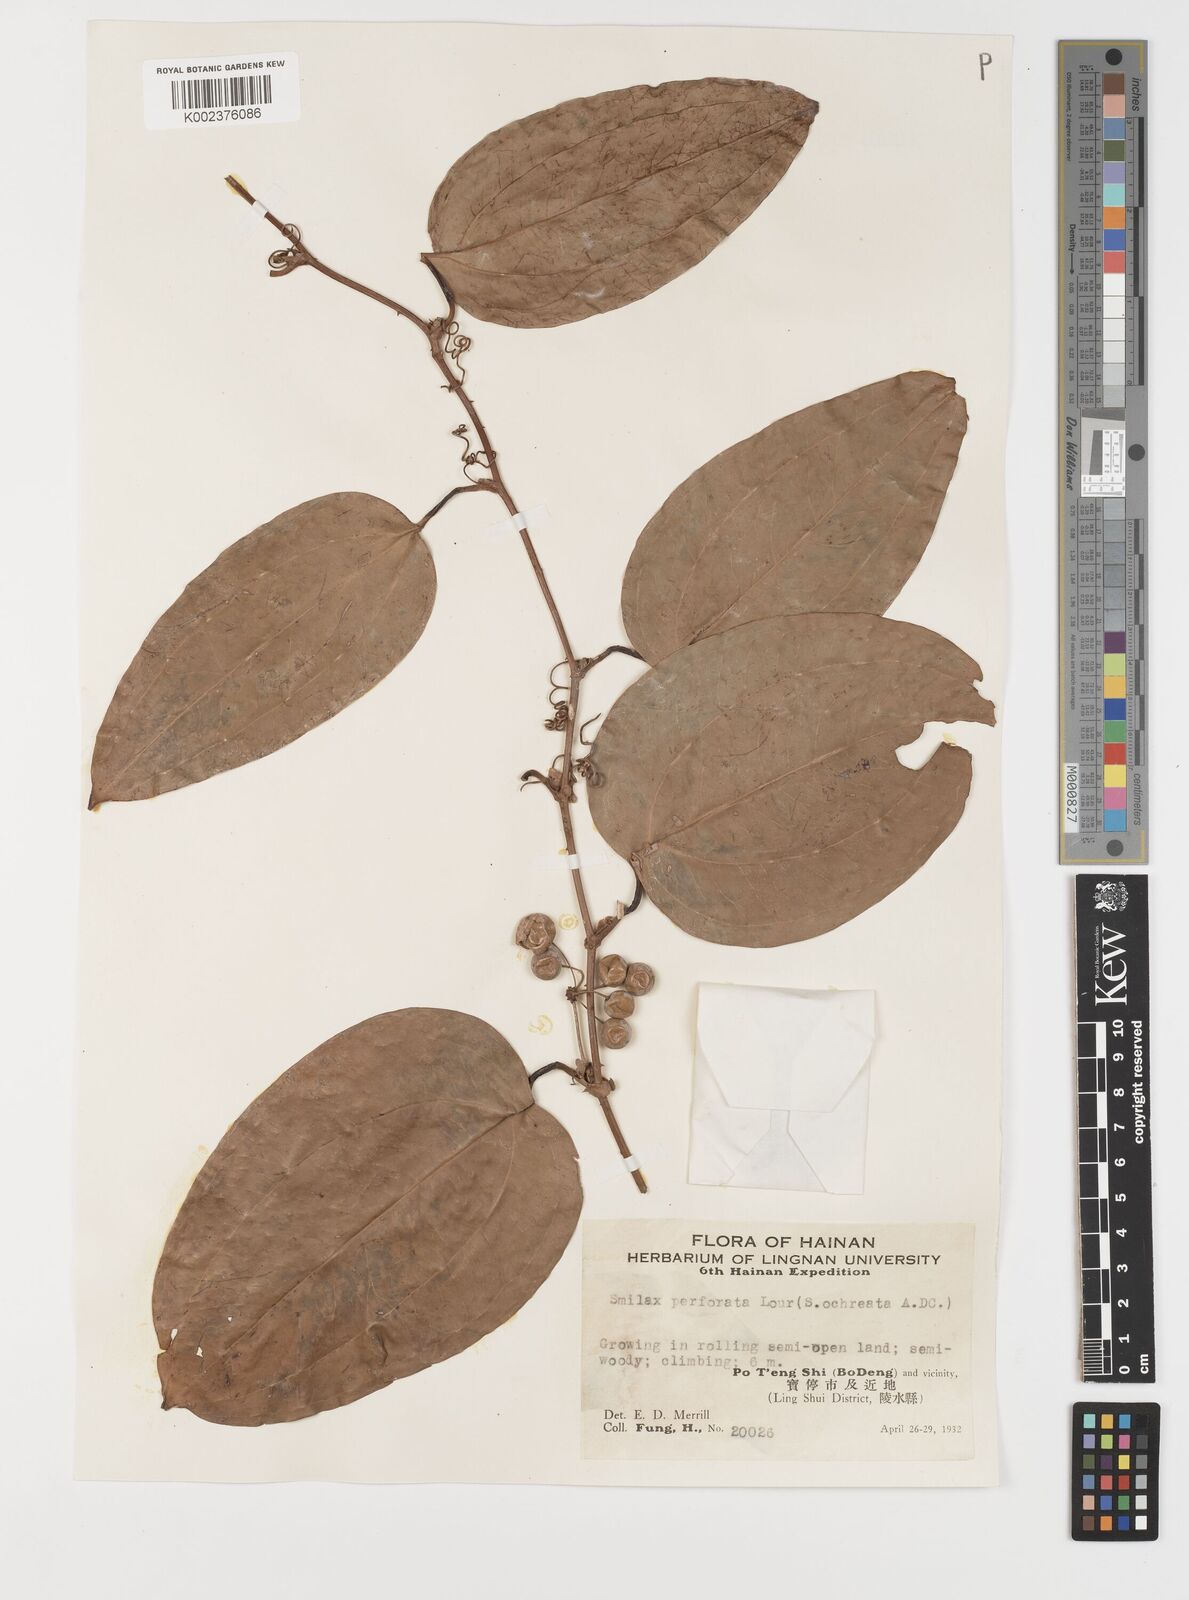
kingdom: Plantae
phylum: Tracheophyta
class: Liliopsida
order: Liliales
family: Smilacaceae
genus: Smilax
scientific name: Smilax ocreata
